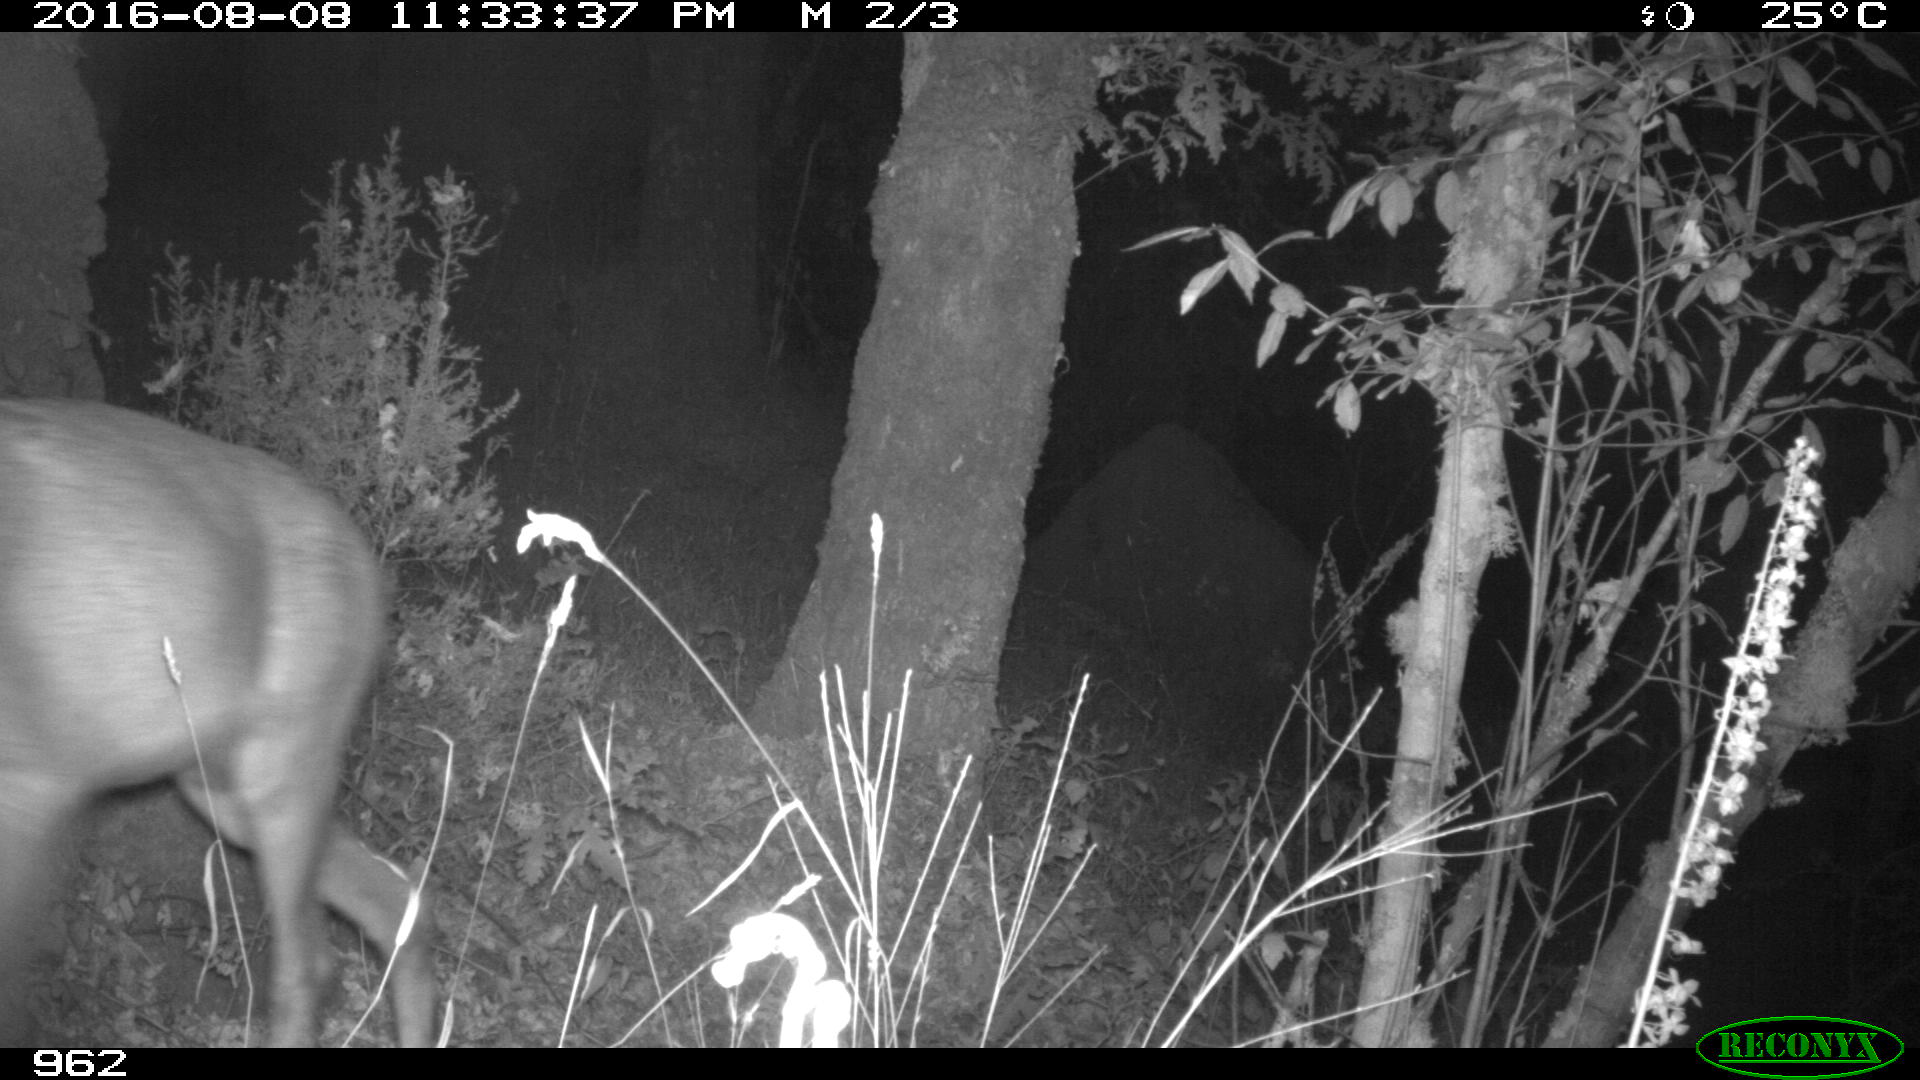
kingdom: Animalia
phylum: Chordata
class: Mammalia
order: Artiodactyla
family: Cervidae
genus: Capreolus
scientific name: Capreolus capreolus
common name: Western roe deer
